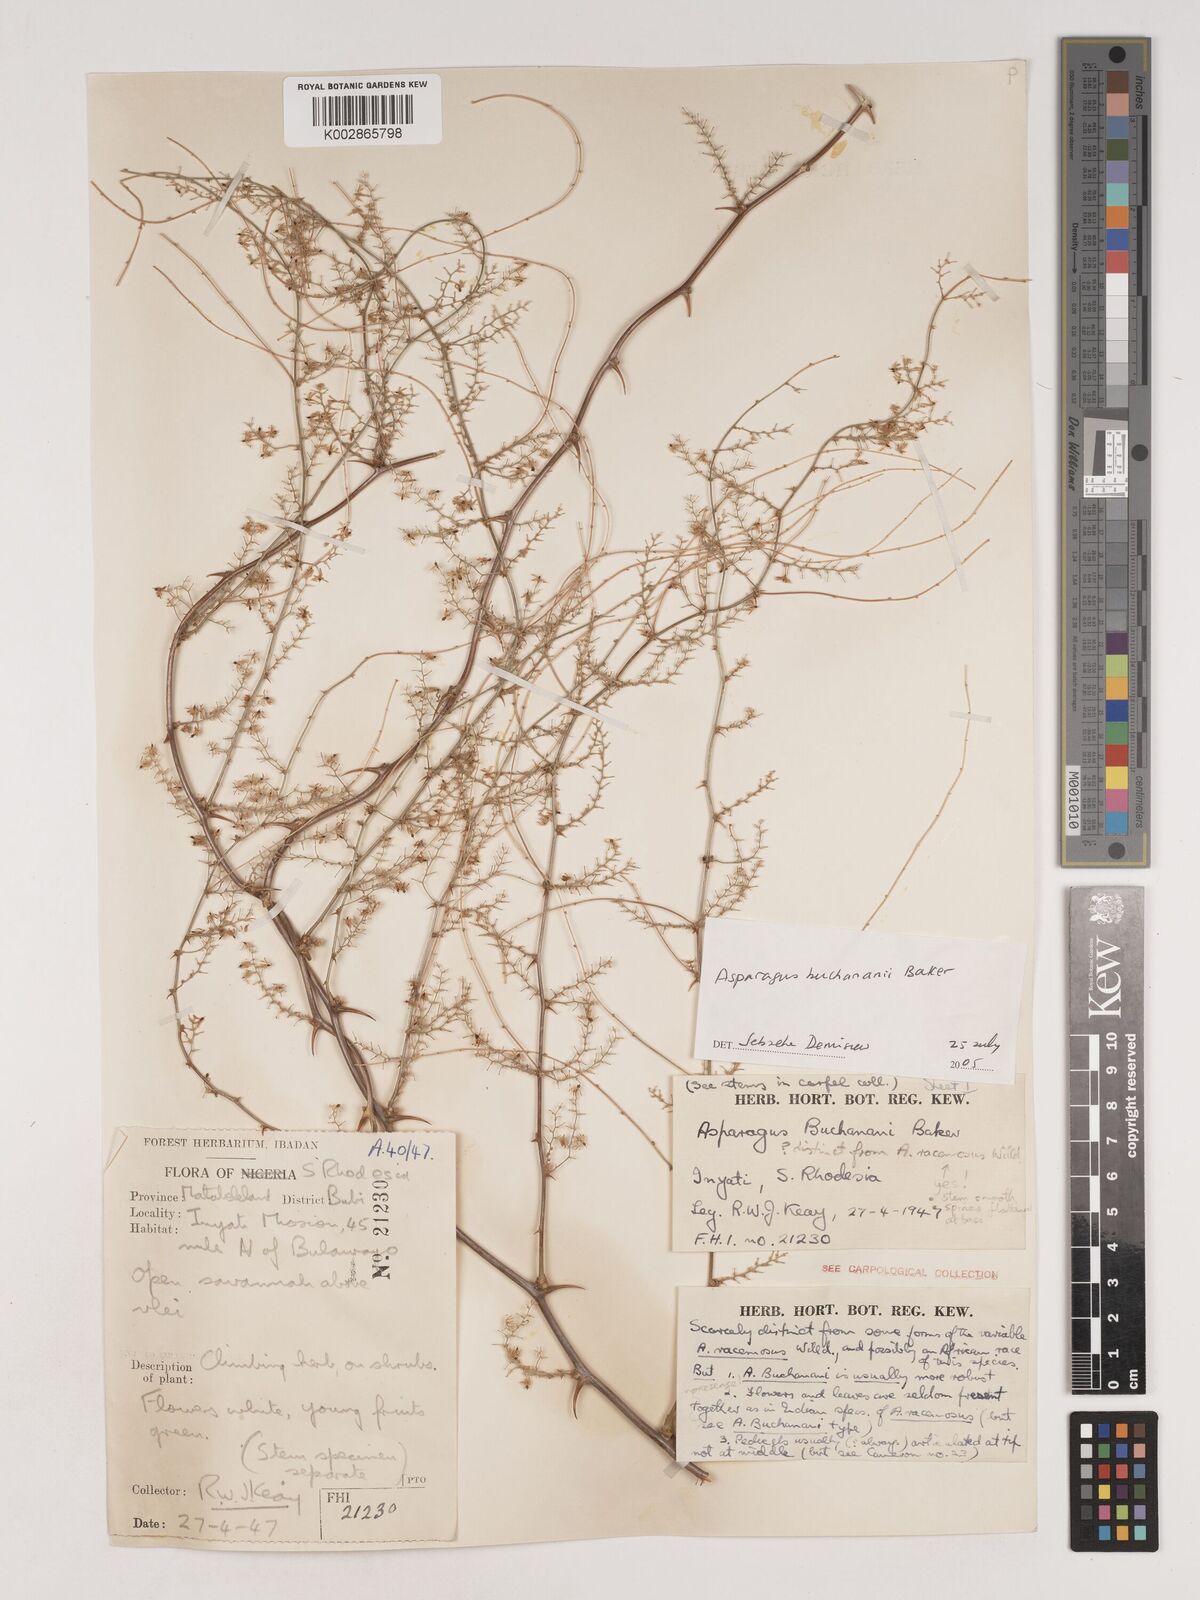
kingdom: Plantae
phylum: Tracheophyta
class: Liliopsida
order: Asparagales
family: Asparagaceae
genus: Asparagus
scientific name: Asparagus buchananii
